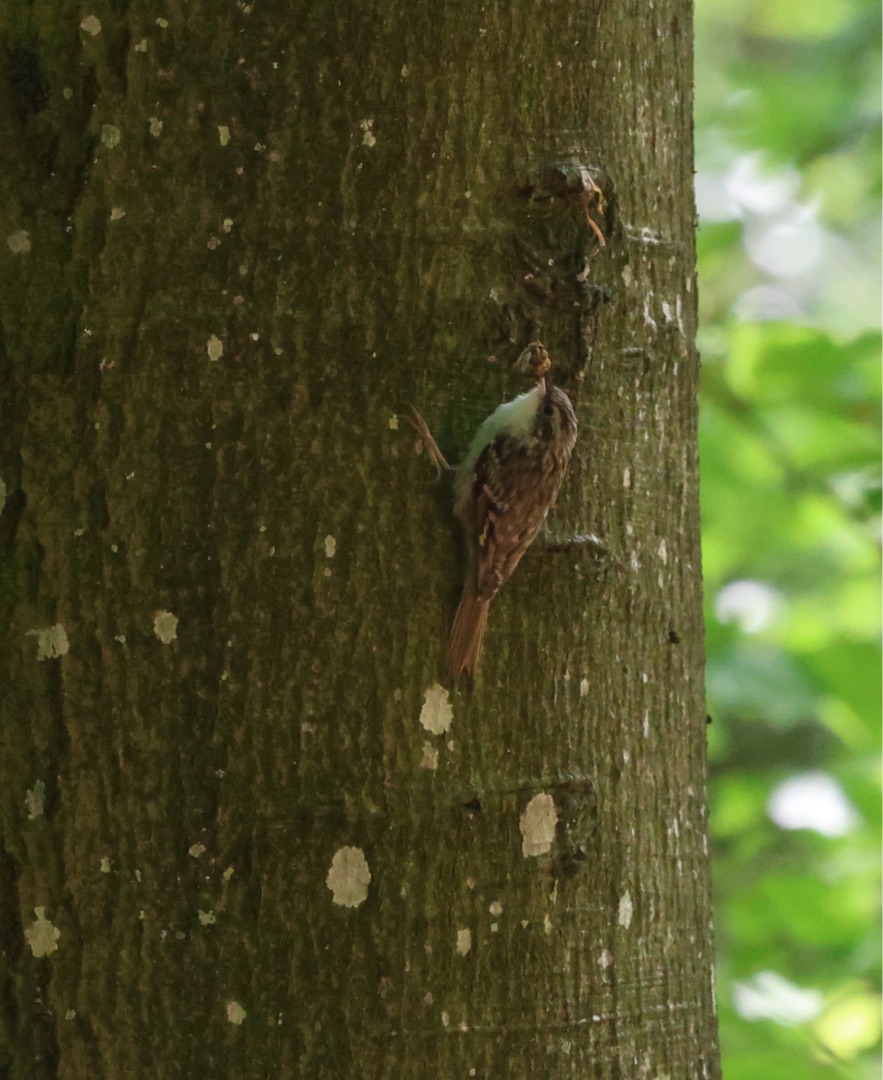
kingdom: Animalia
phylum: Chordata
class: Aves
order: Passeriformes
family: Certhiidae
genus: Certhia
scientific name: Certhia familiaris
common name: Træløber
